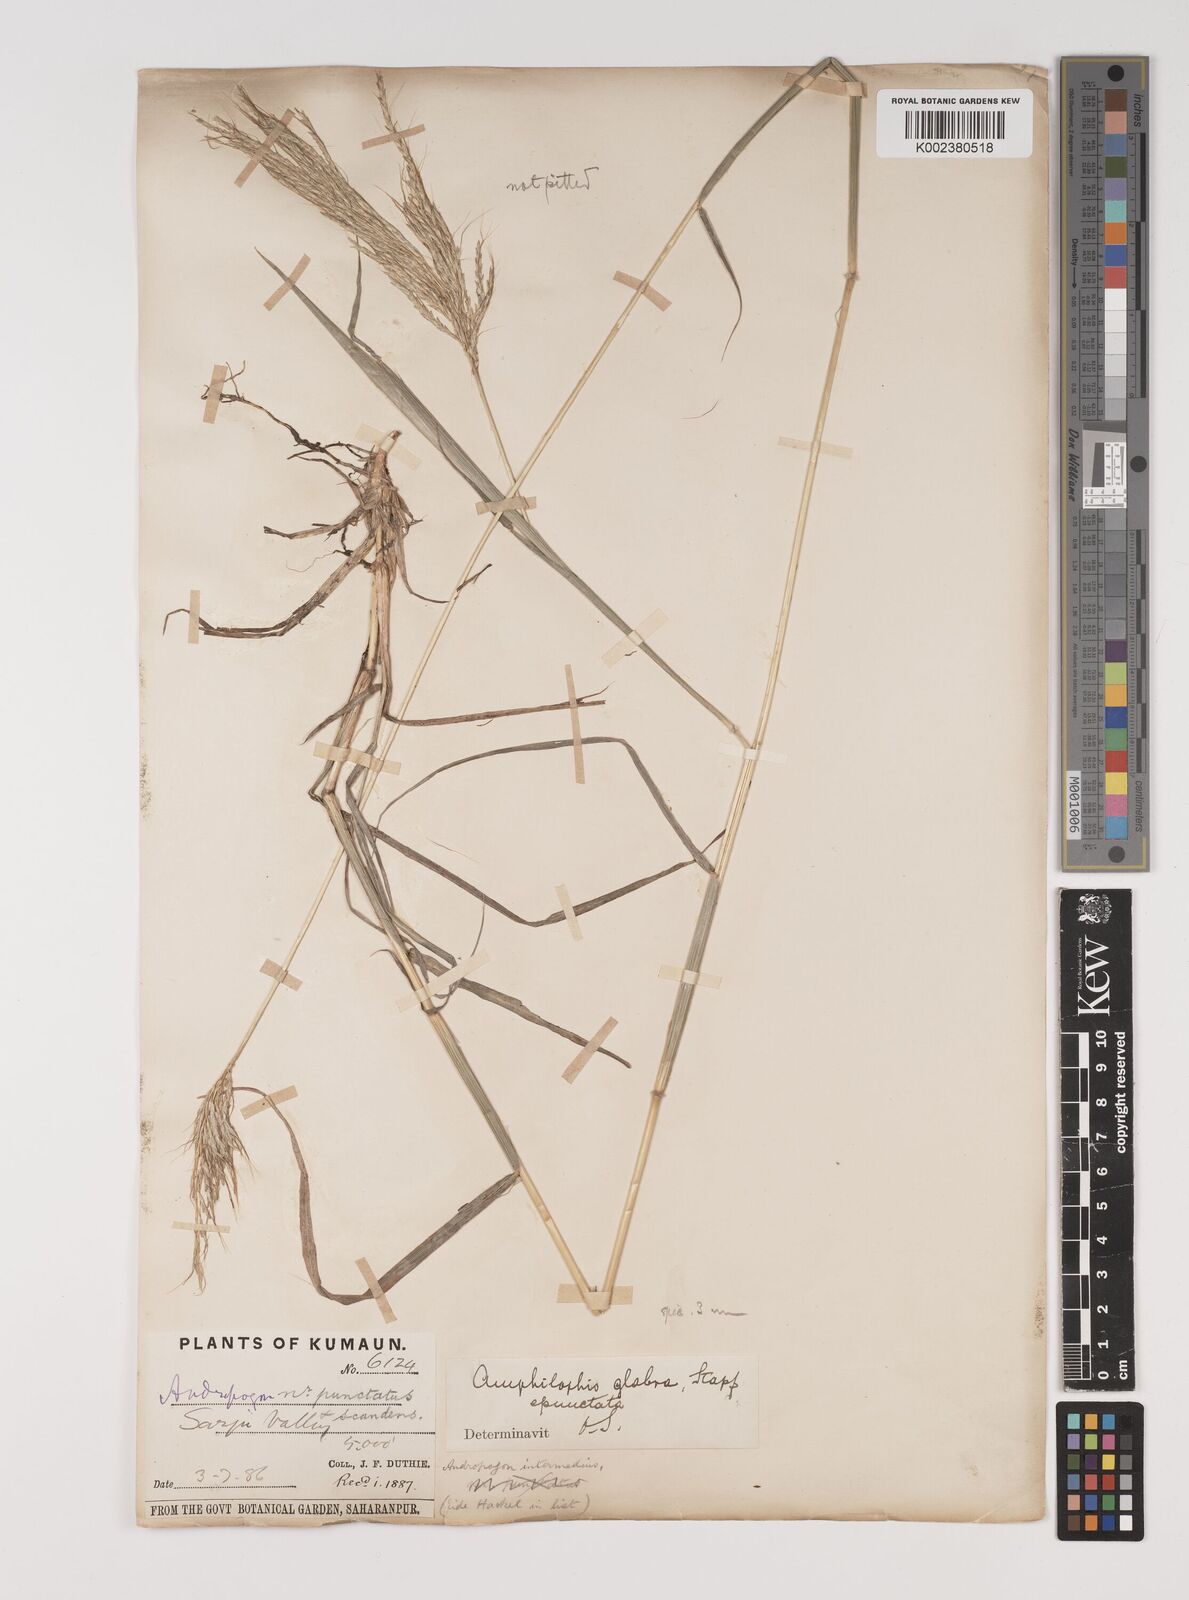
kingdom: Plantae
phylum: Tracheophyta
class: Liliopsida
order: Poales
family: Poaceae
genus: Bothriochloa
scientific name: Bothriochloa bladhii
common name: Caucasian bluestem
